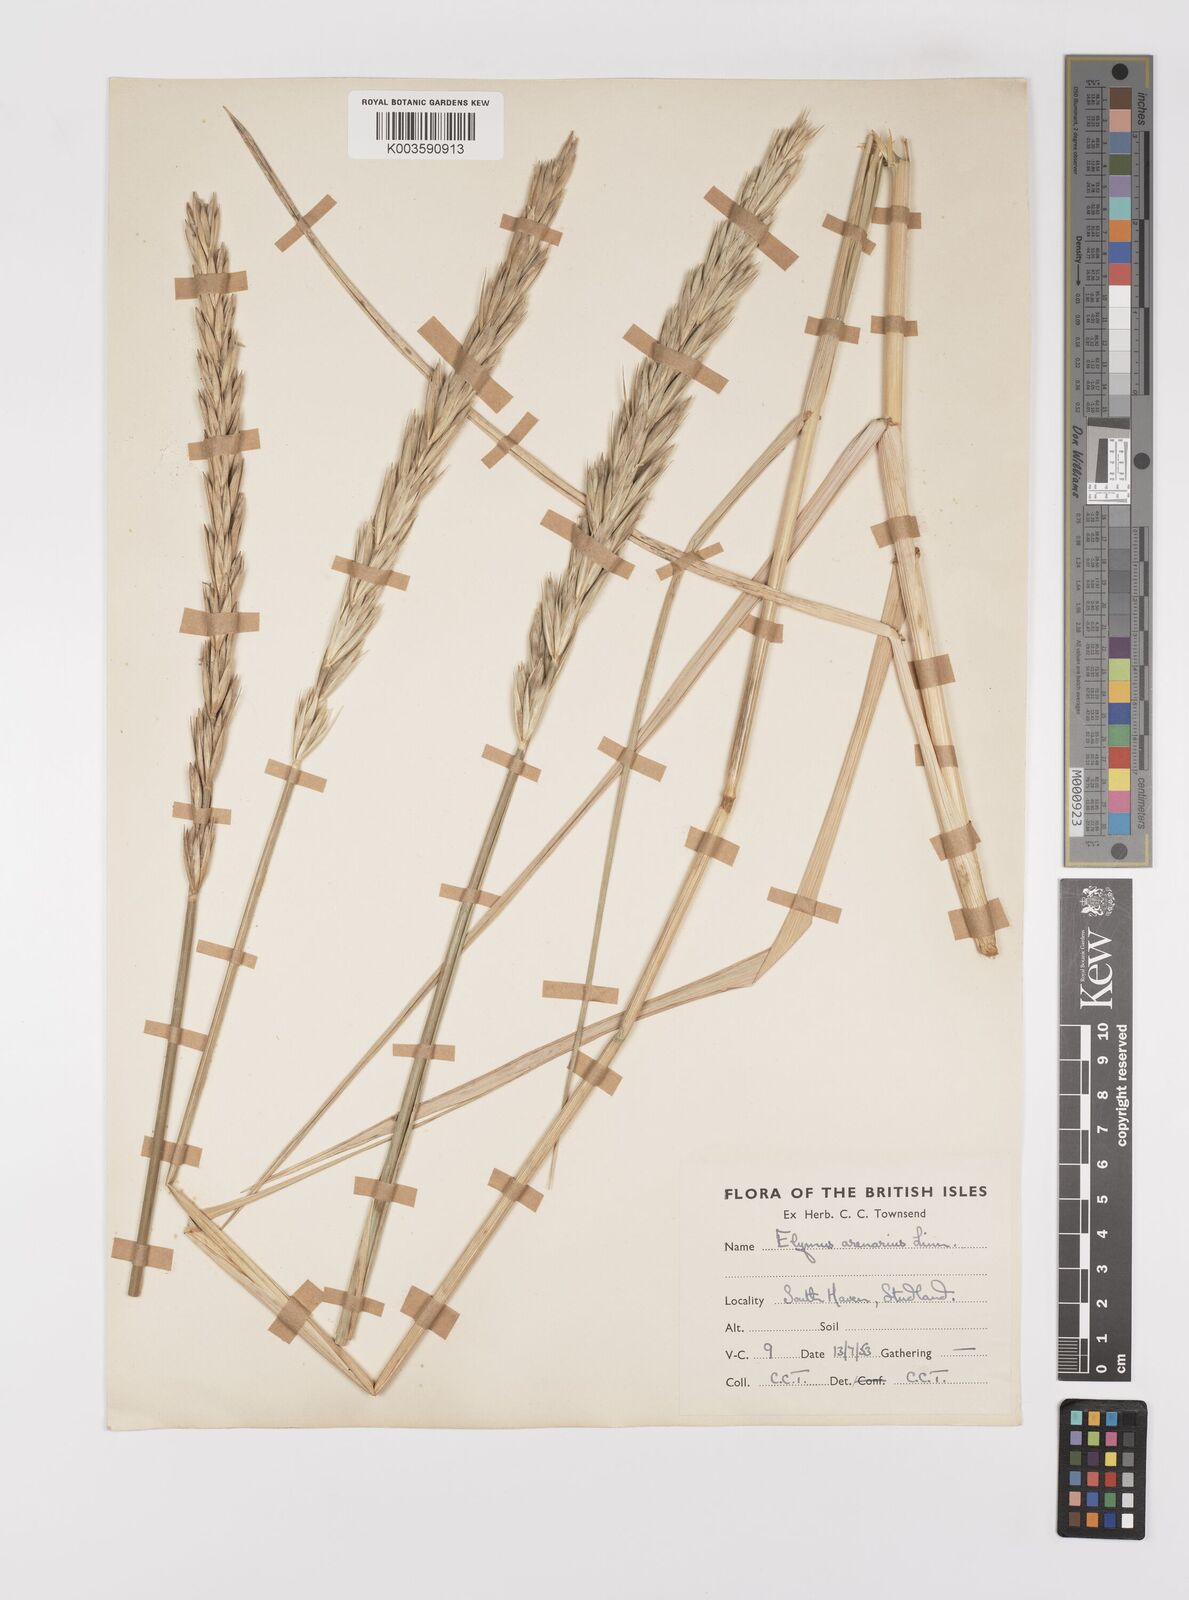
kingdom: Plantae
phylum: Tracheophyta
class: Liliopsida
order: Poales
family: Poaceae
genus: Leymus
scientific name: Leymus arenarius
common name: Lyme-grass
